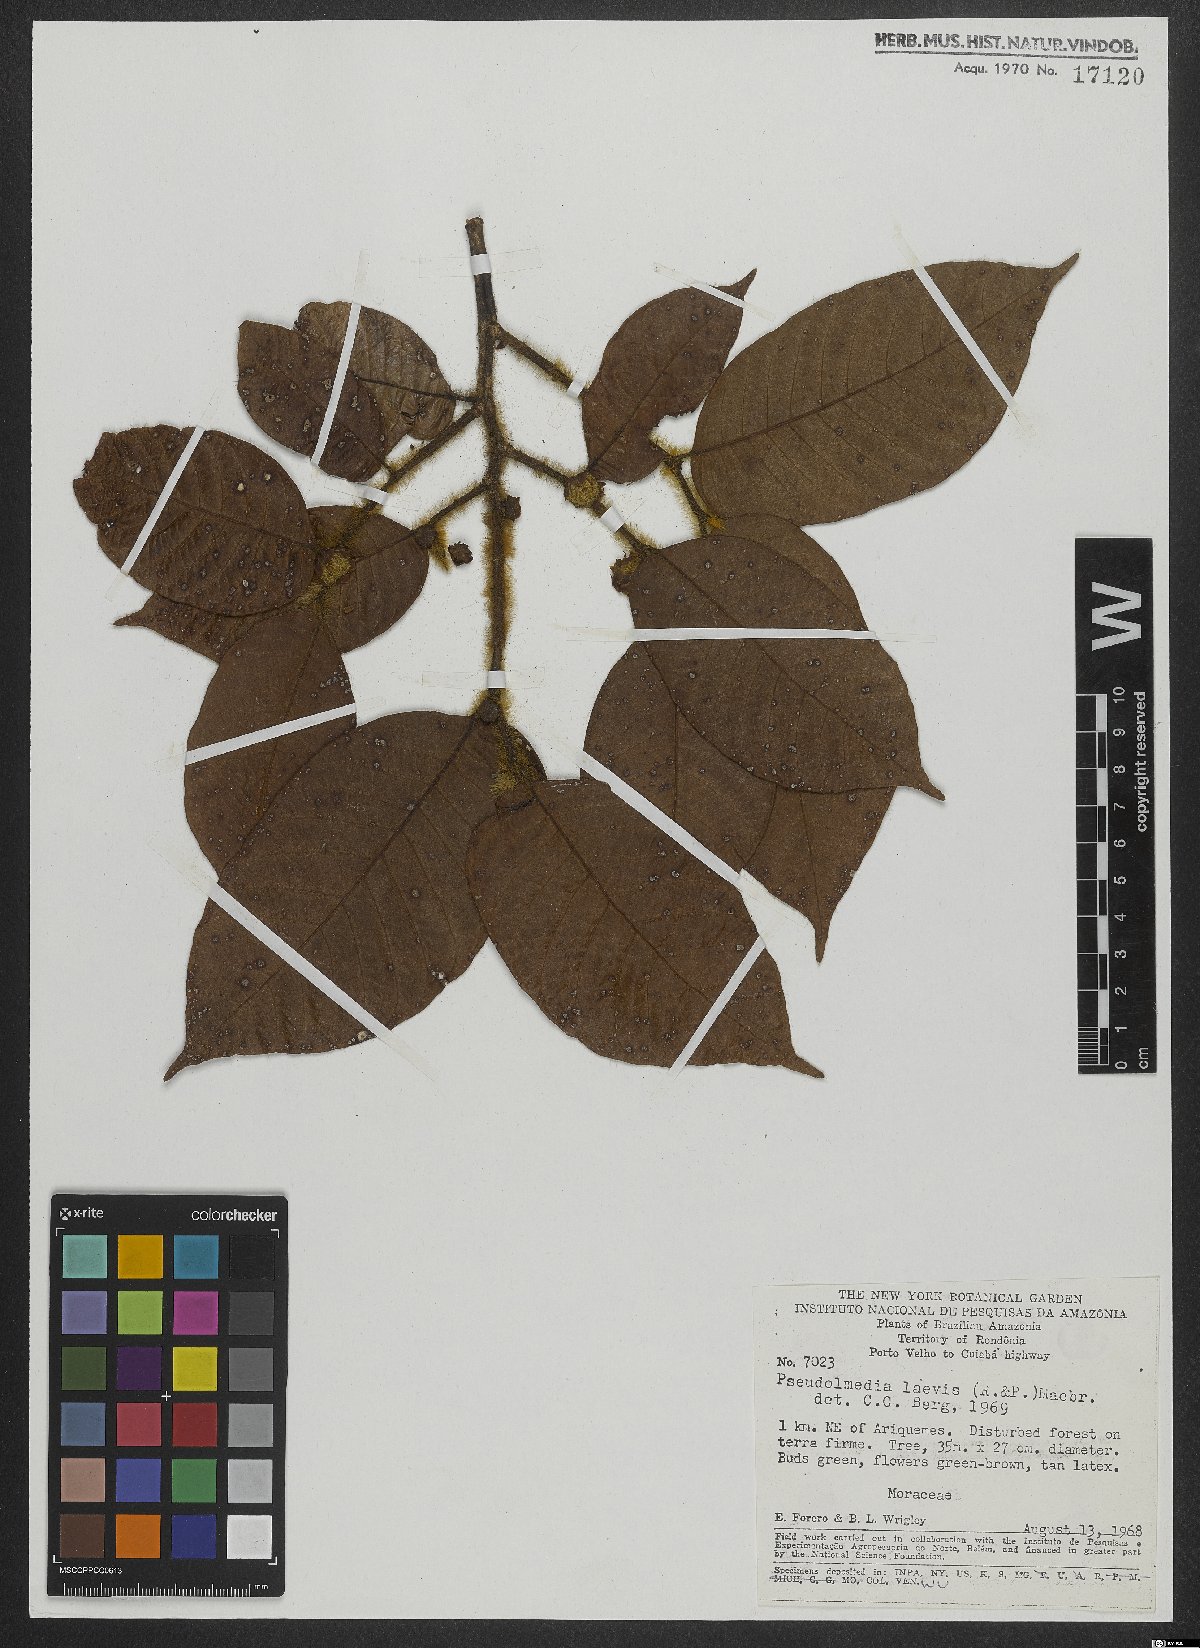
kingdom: Plantae
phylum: Tracheophyta
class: Magnoliopsida
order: Rosales
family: Moraceae
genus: Pseudolmedia
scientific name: Pseudolmedia laevis
